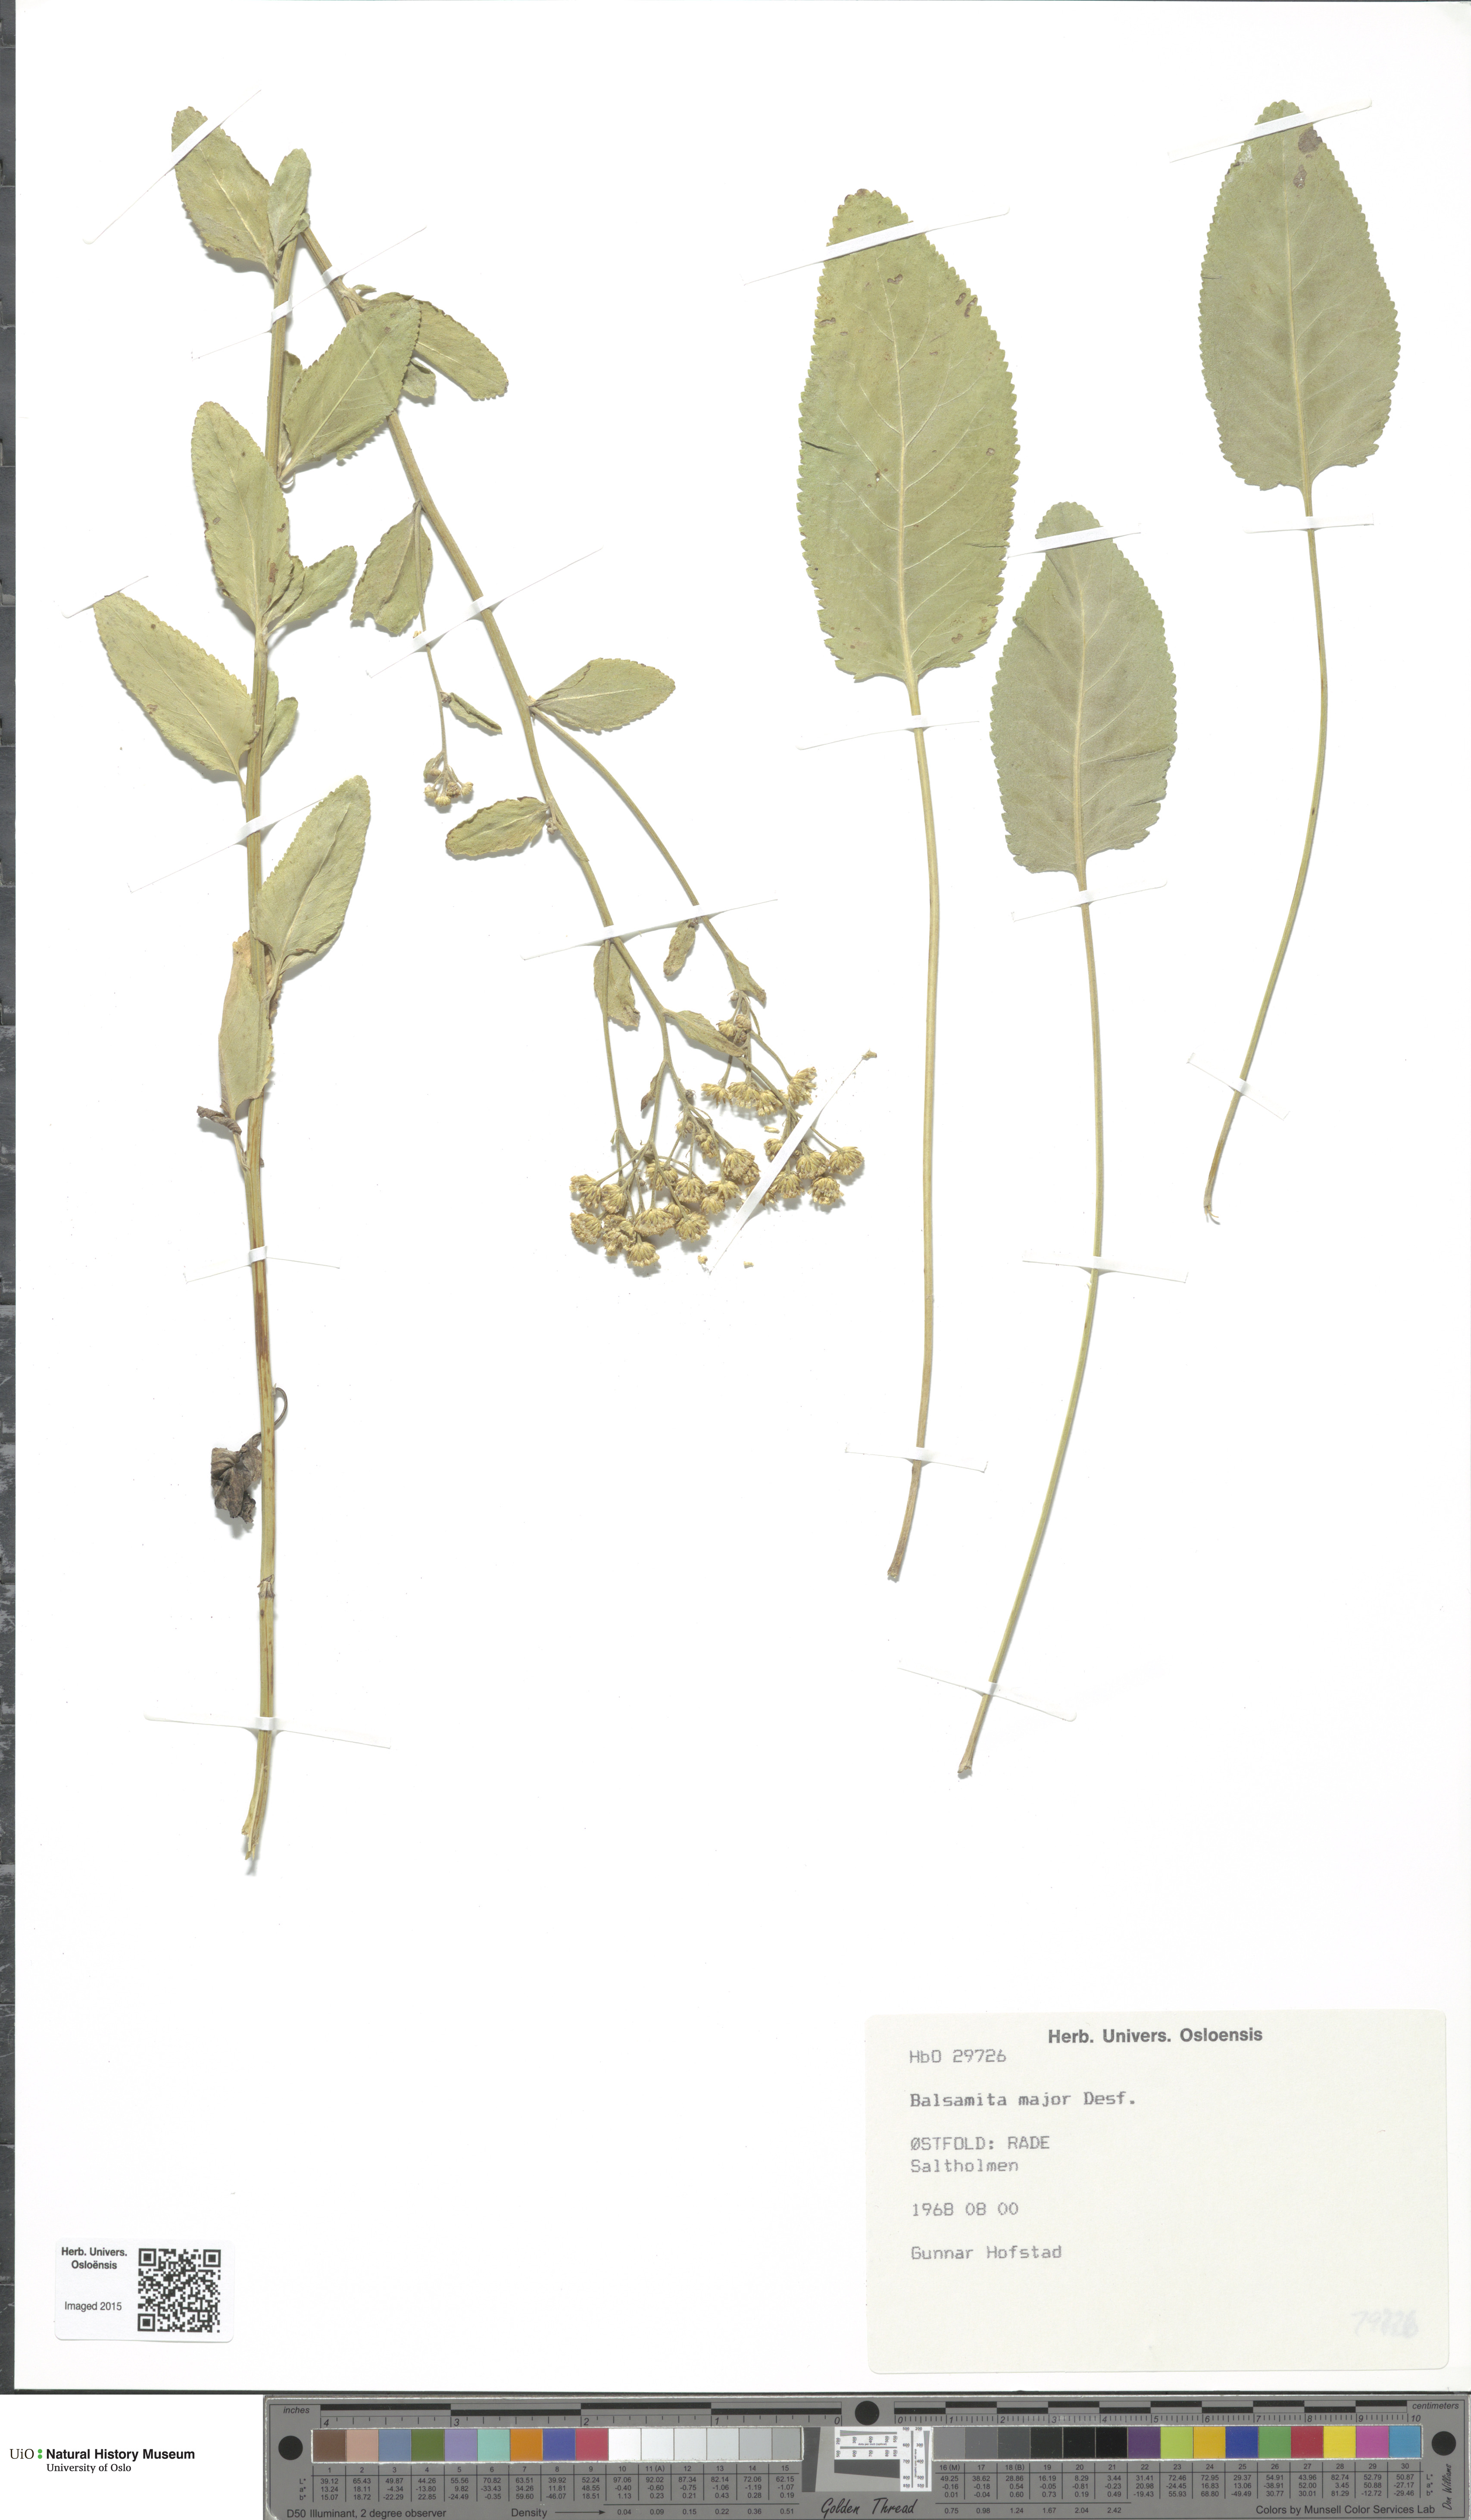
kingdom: Plantae
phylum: Tracheophyta
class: Magnoliopsida
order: Asterales
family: Asteraceae
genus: Tanacetum
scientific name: Tanacetum balsamita
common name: Costmary
